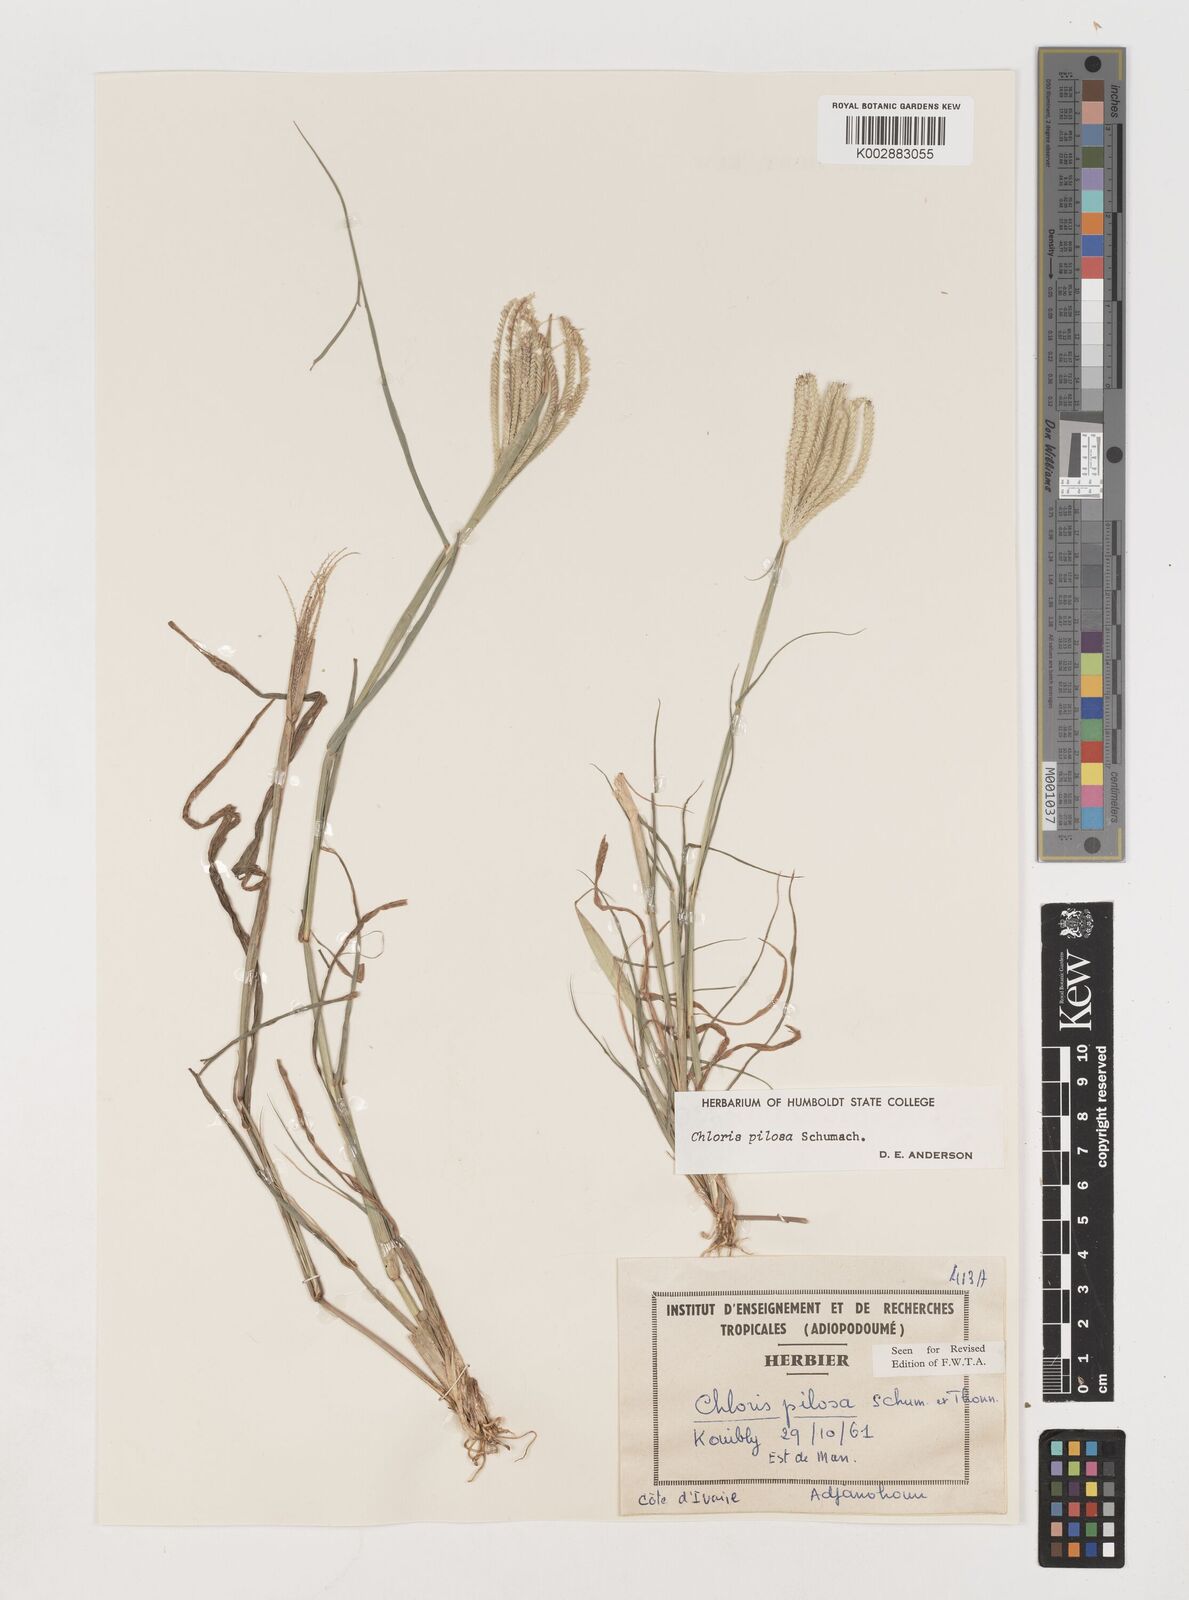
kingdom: Plantae
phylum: Tracheophyta
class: Liliopsida
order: Poales
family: Poaceae
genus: Chloris
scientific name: Chloris pilosa
